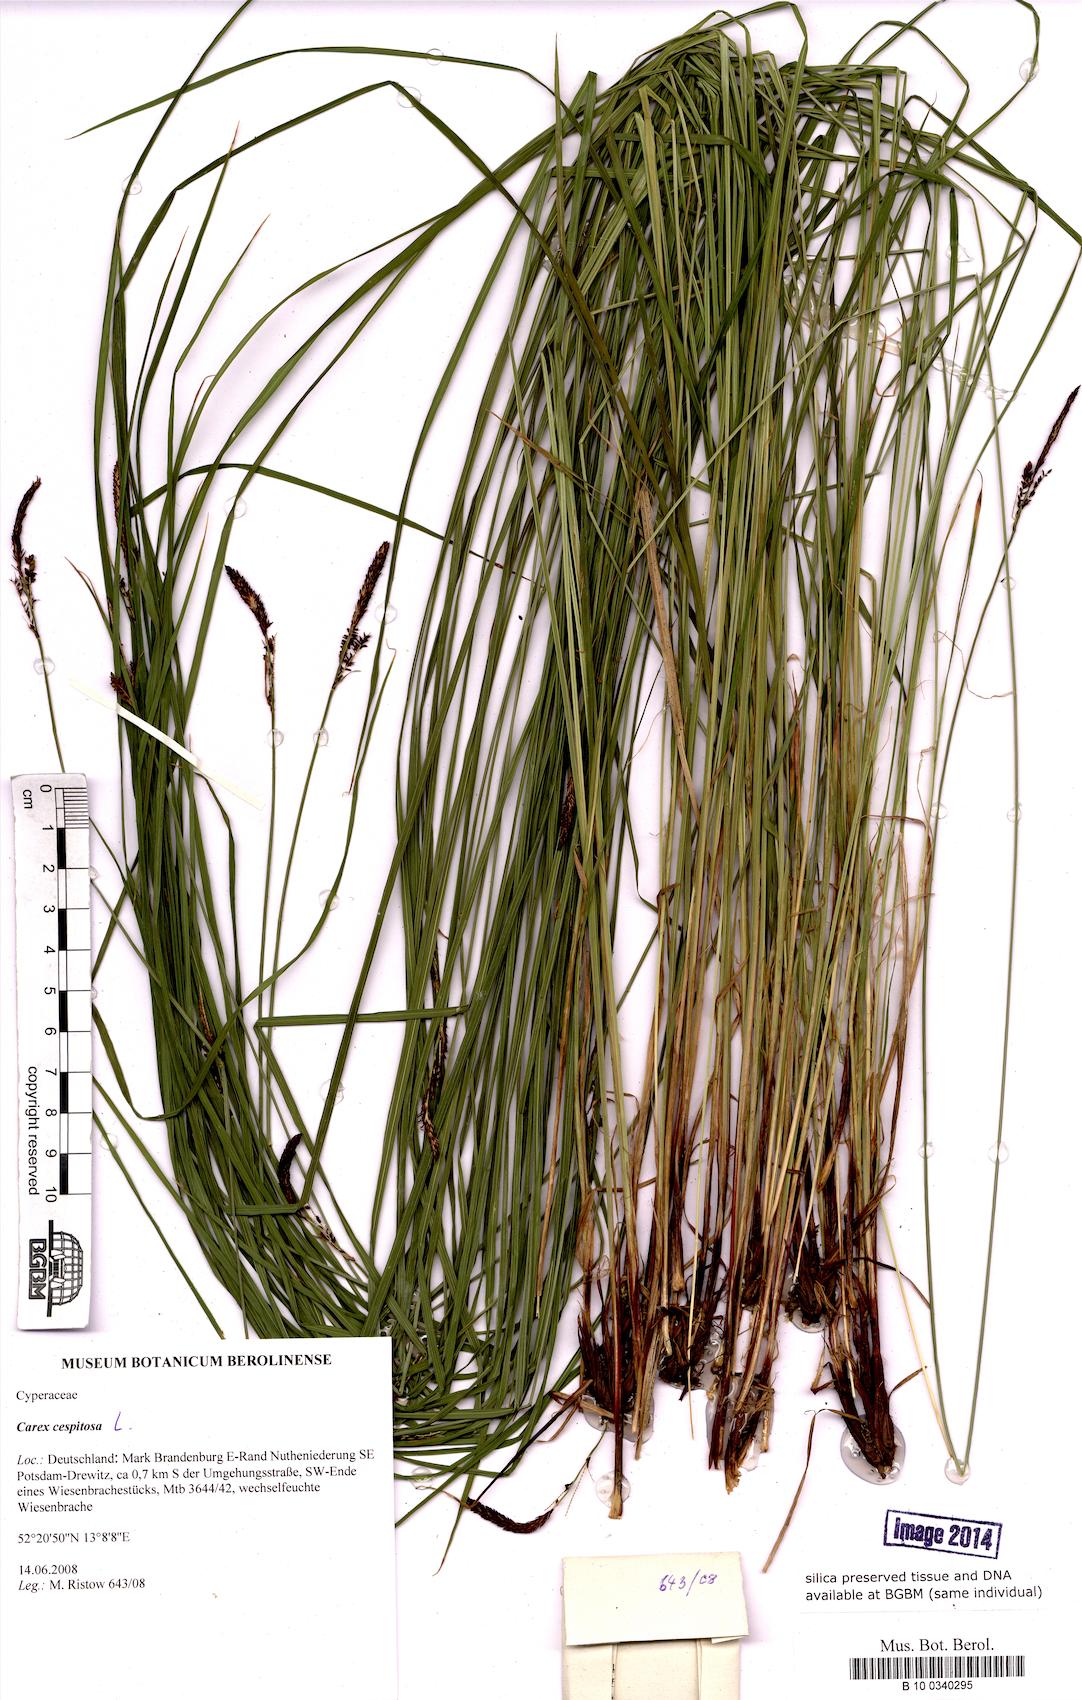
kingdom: Plantae
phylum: Tracheophyta
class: Liliopsida
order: Poales
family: Cyperaceae
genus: Carex
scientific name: Carex cespitosa
